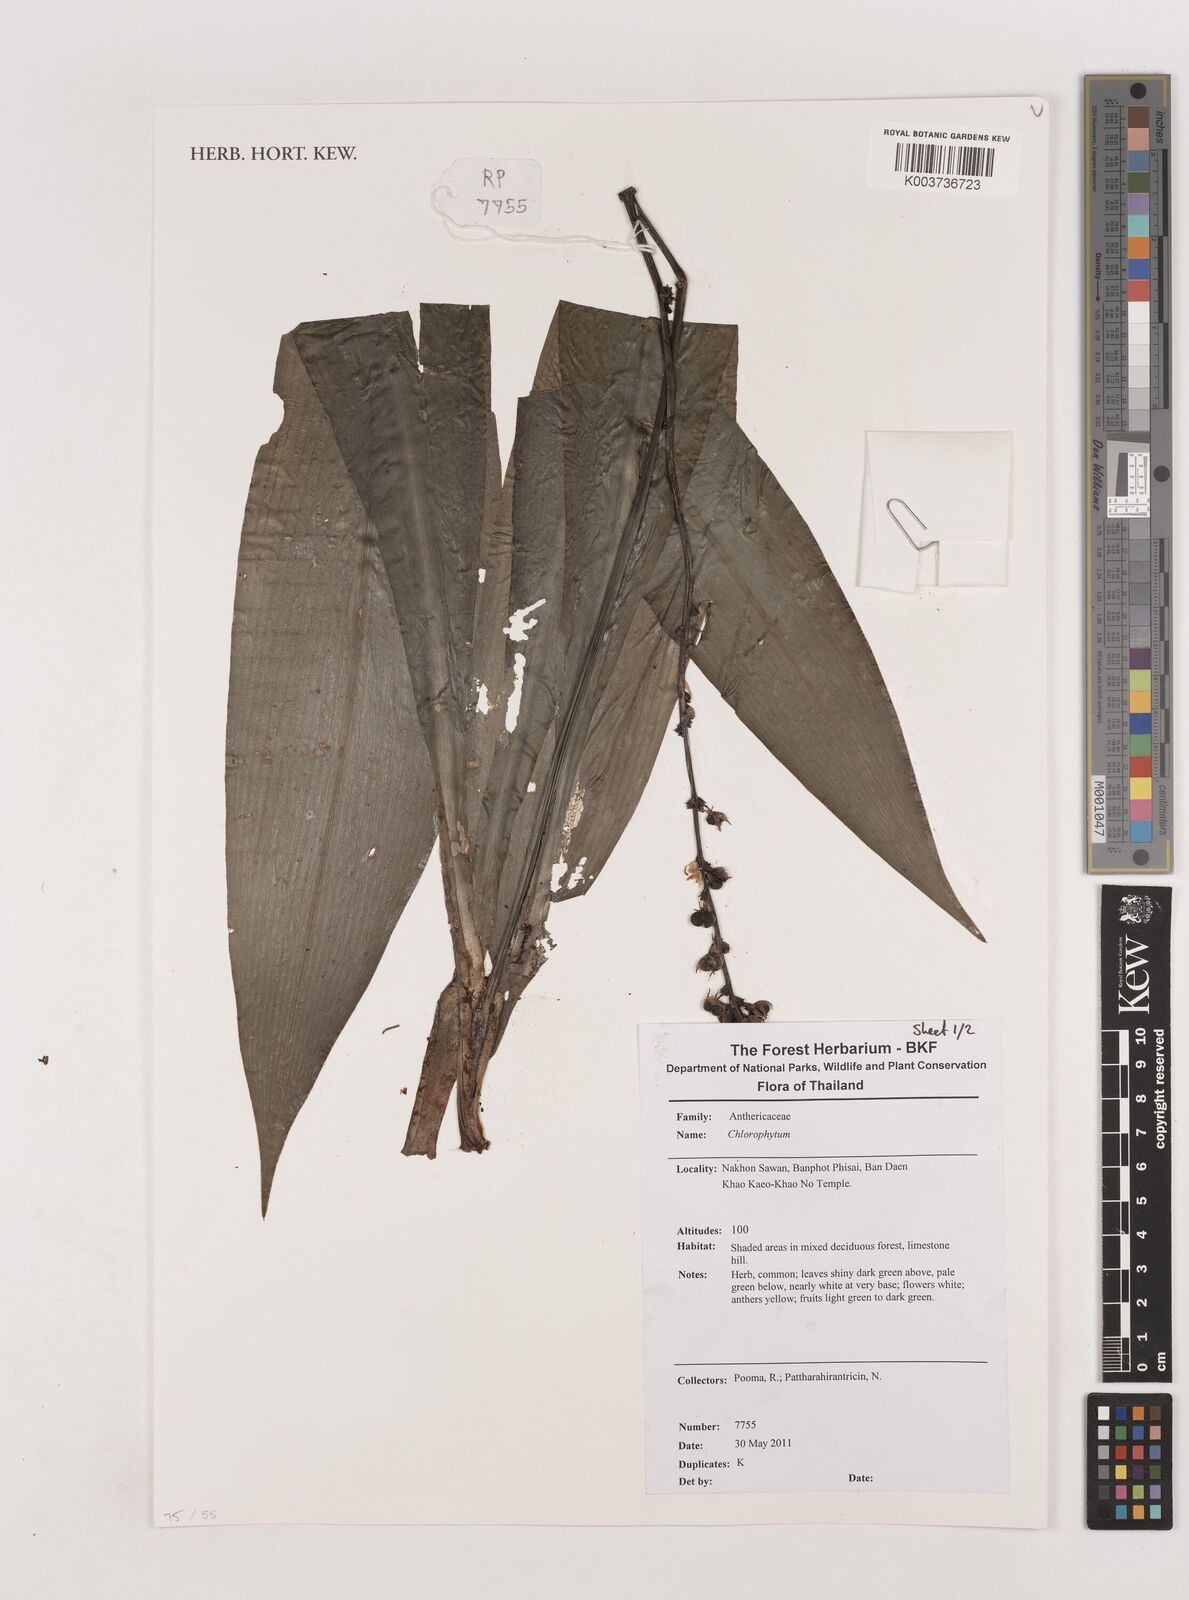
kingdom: Plantae
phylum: Tracheophyta
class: Liliopsida
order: Asparagales
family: Asparagaceae
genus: Chlorophytum
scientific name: Chlorophytum
